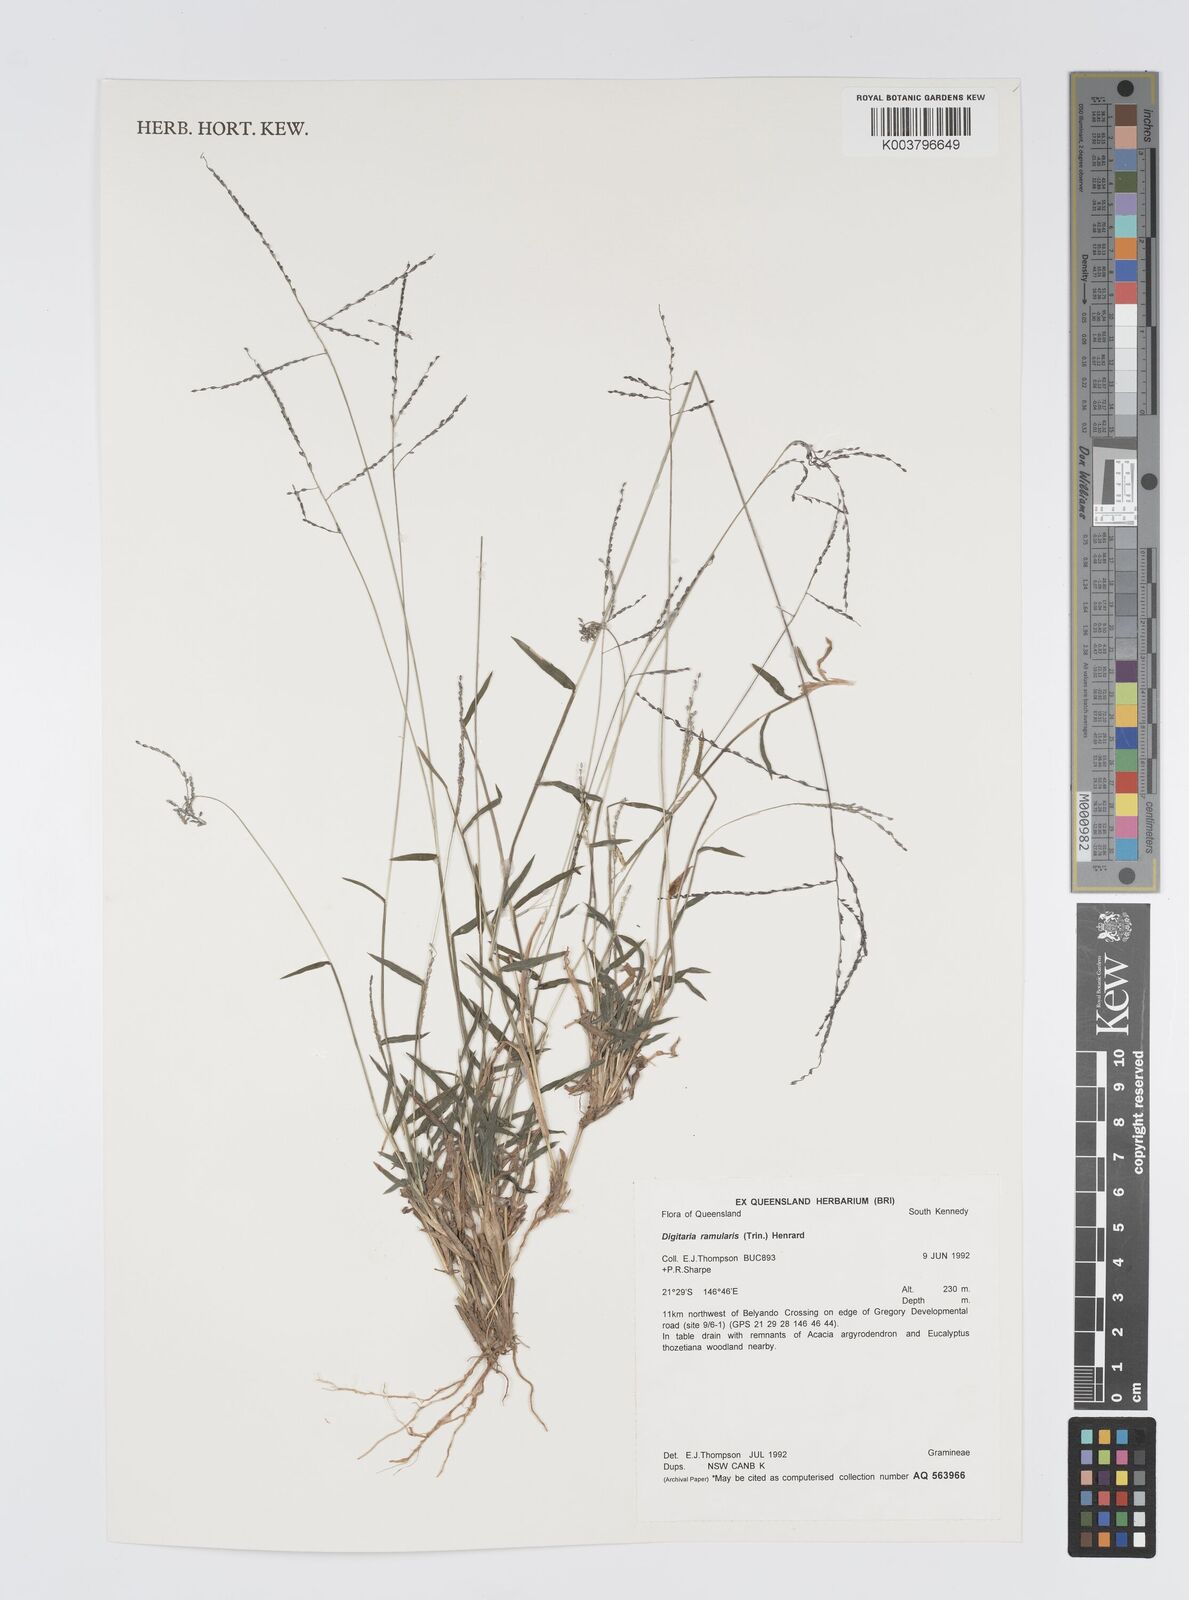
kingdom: Plantae
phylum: Tracheophyta
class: Liliopsida
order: Poales
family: Poaceae
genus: Digitaria
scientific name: Digitaria ramularis
